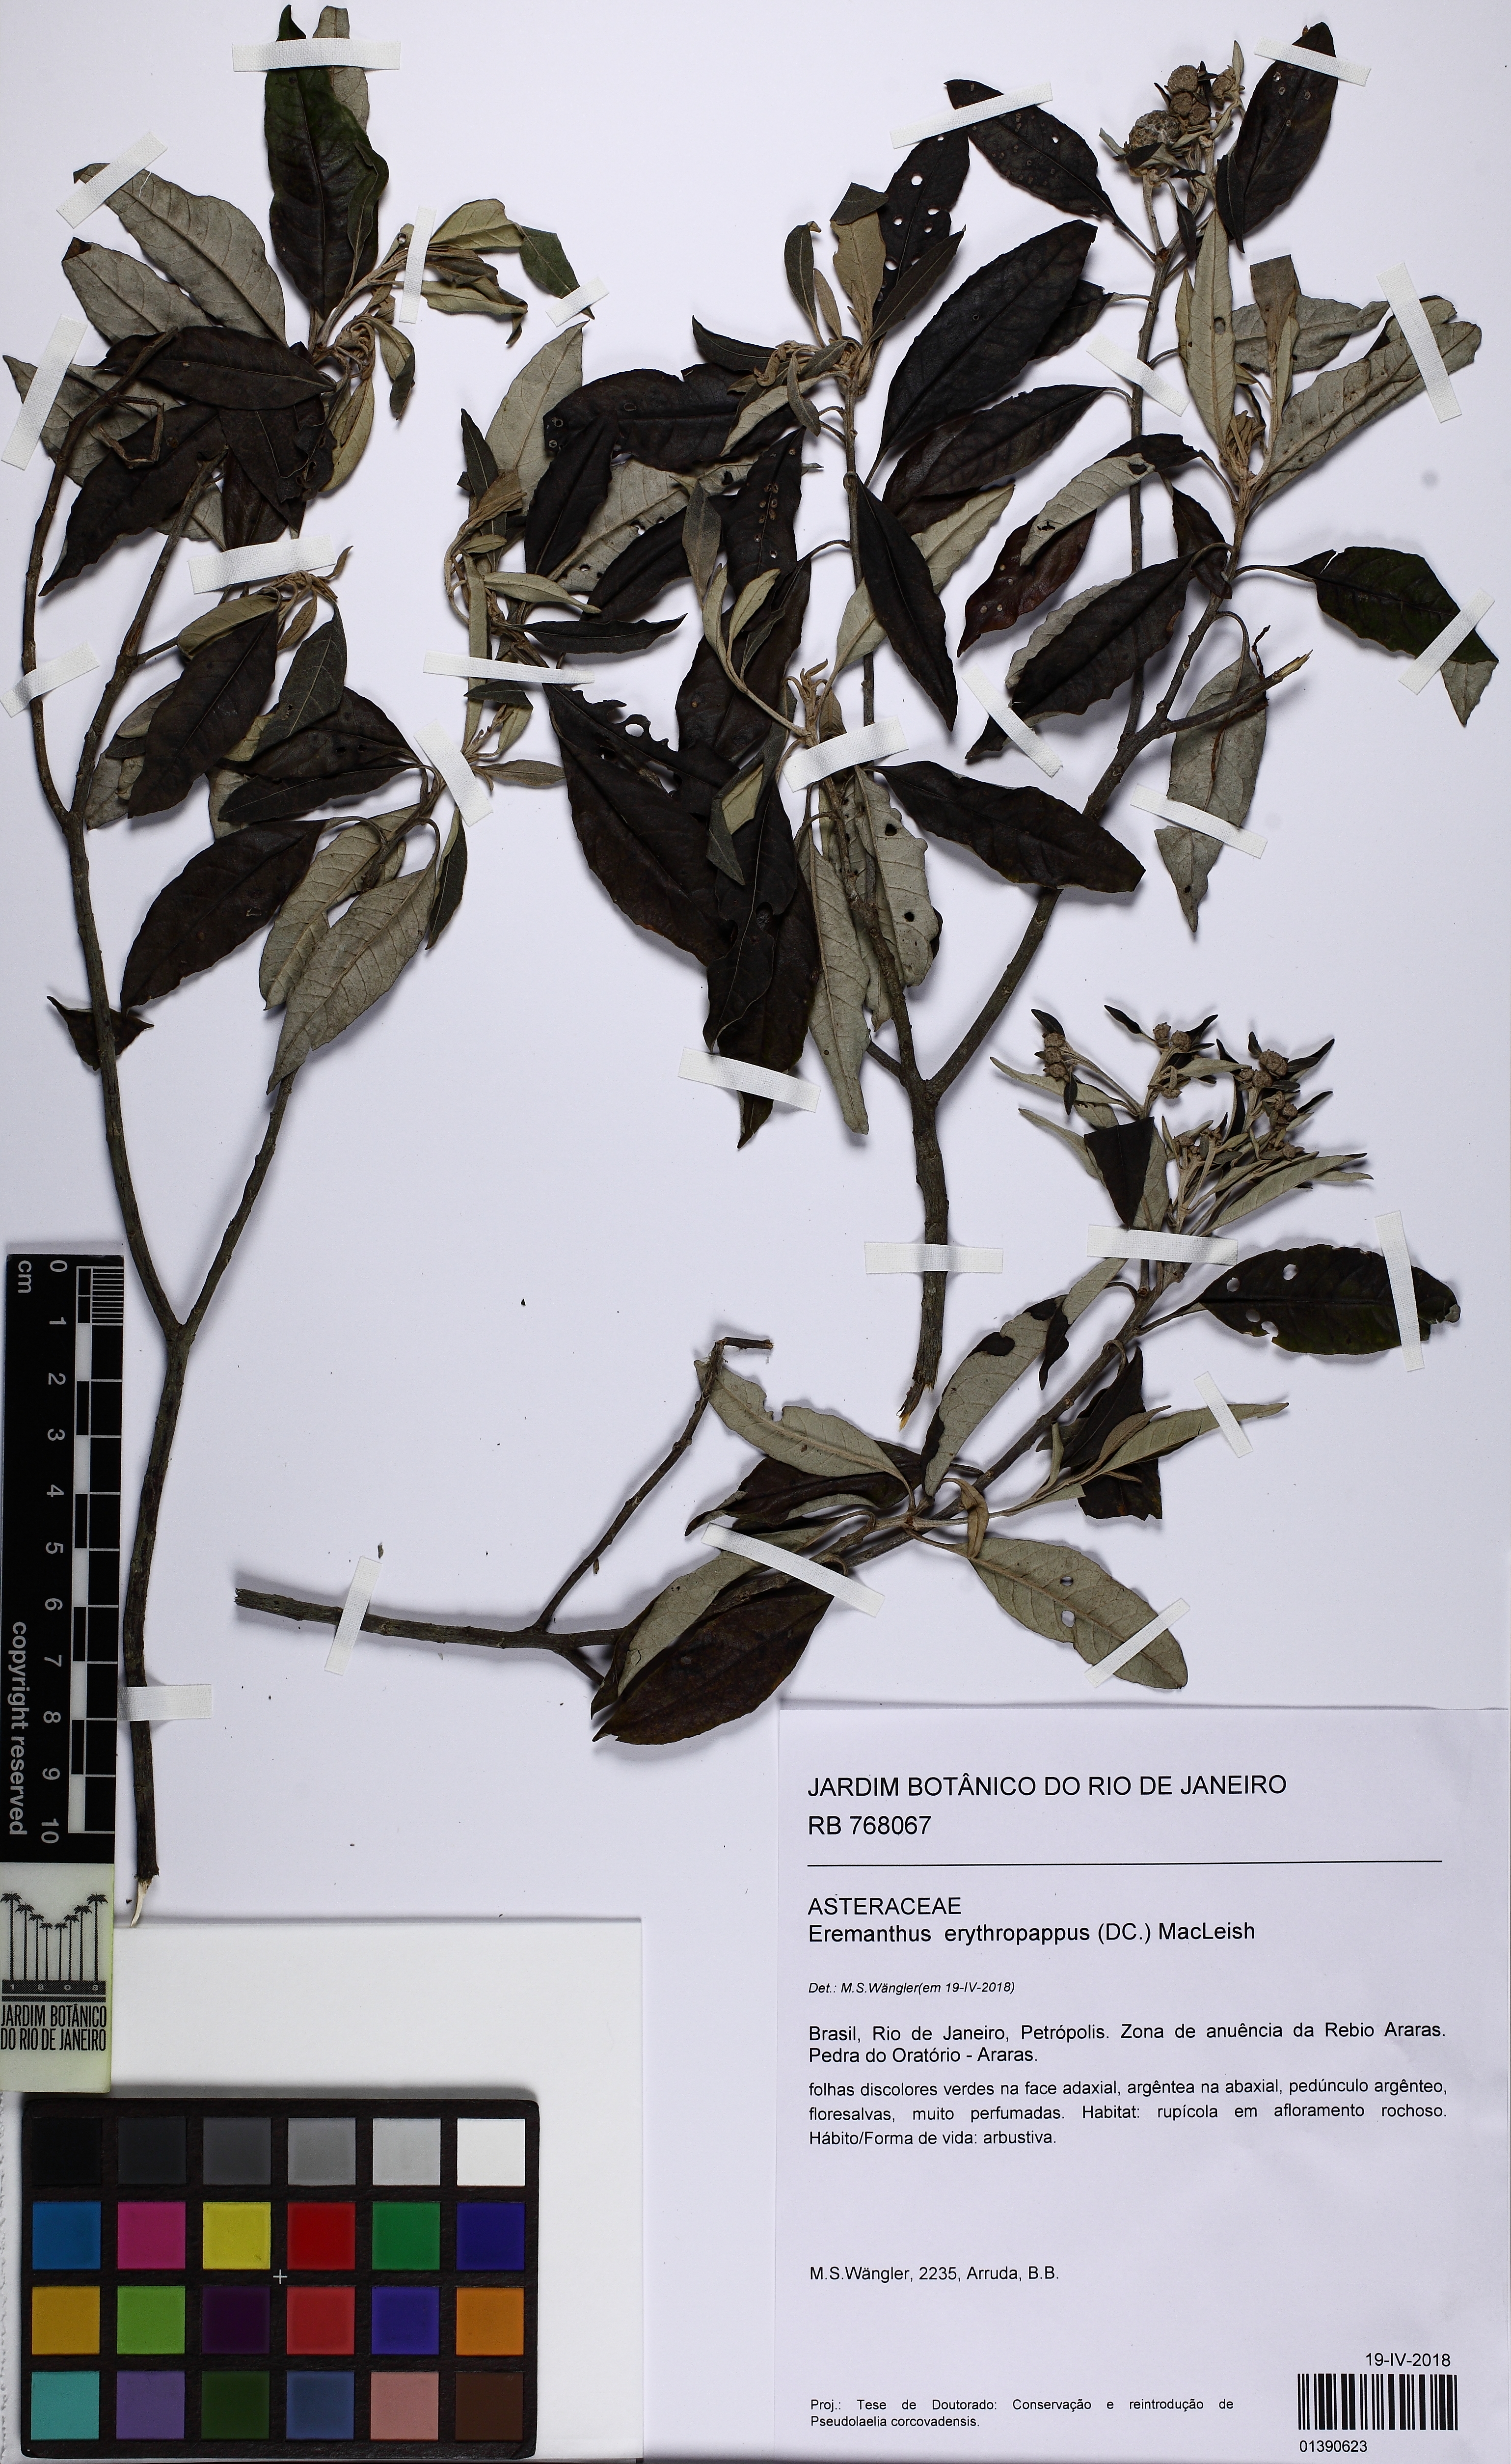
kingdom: Plantae
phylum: Tracheophyta
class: Magnoliopsida
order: Asterales
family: Asteraceae
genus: Eremanthus
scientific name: Eremanthus erythropappus
